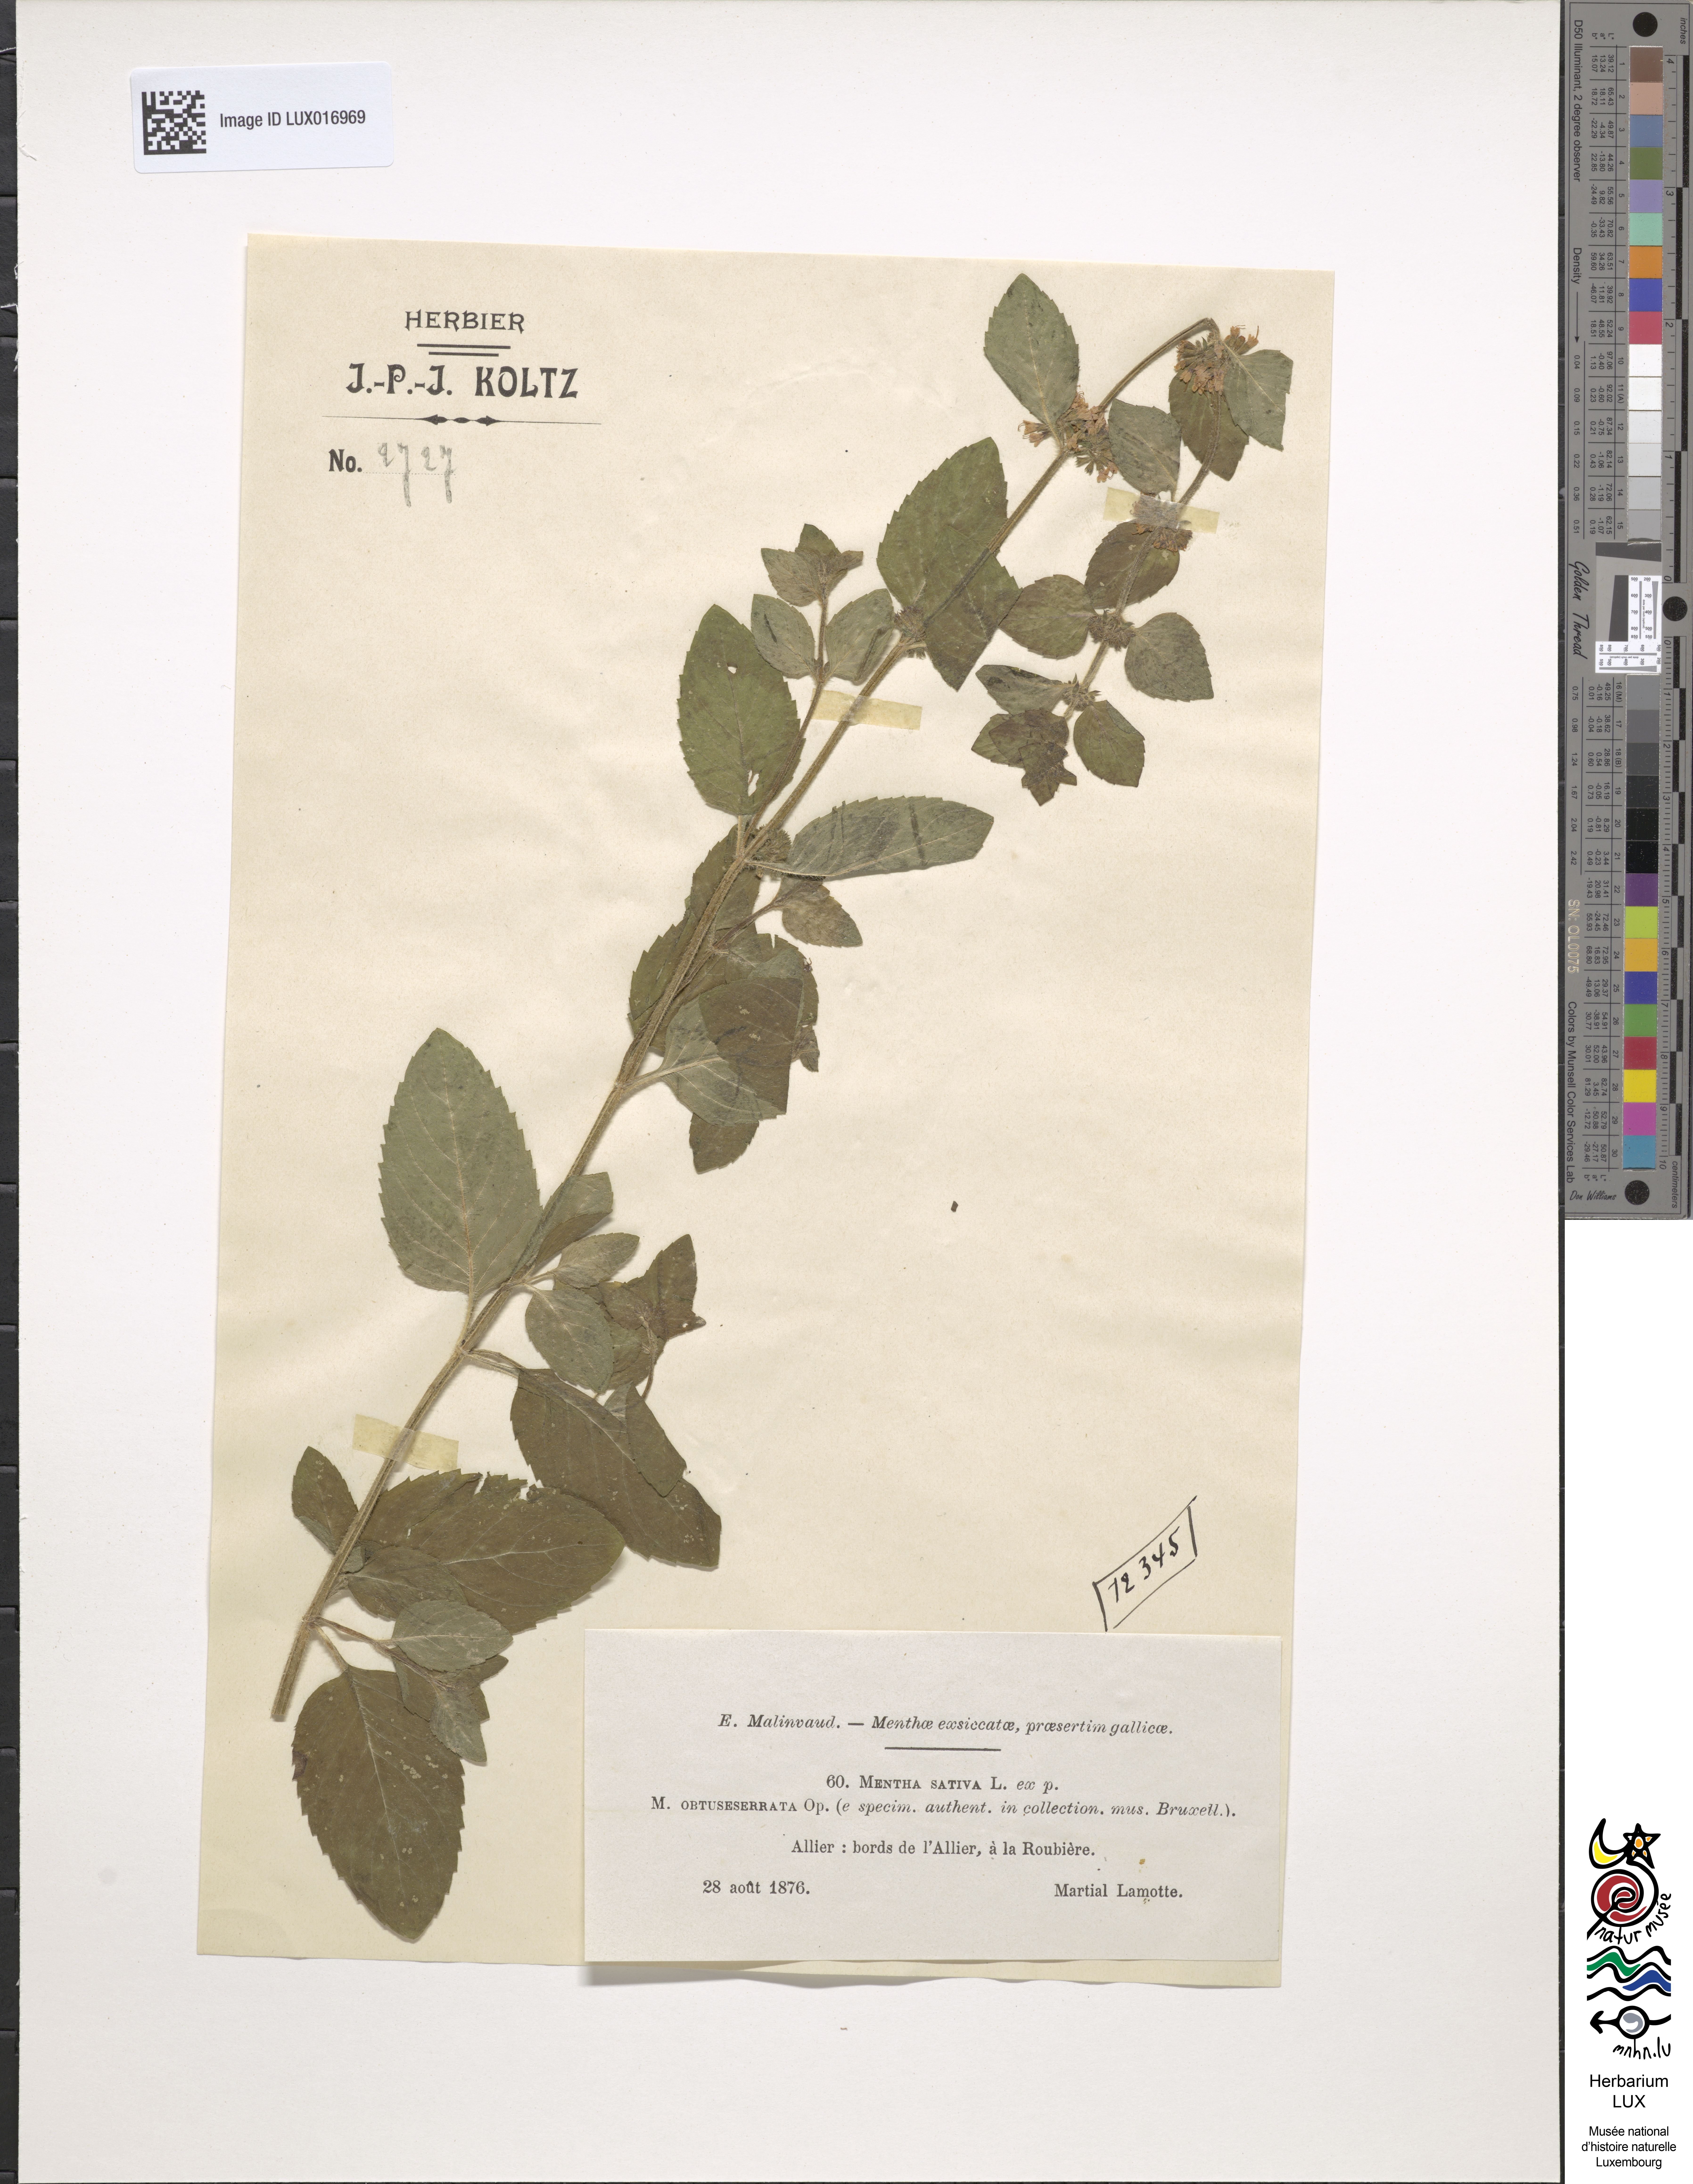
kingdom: Plantae
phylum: Tracheophyta
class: Magnoliopsida
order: Lamiales
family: Lamiaceae
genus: Mentha
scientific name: Mentha verticillata
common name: Mint
